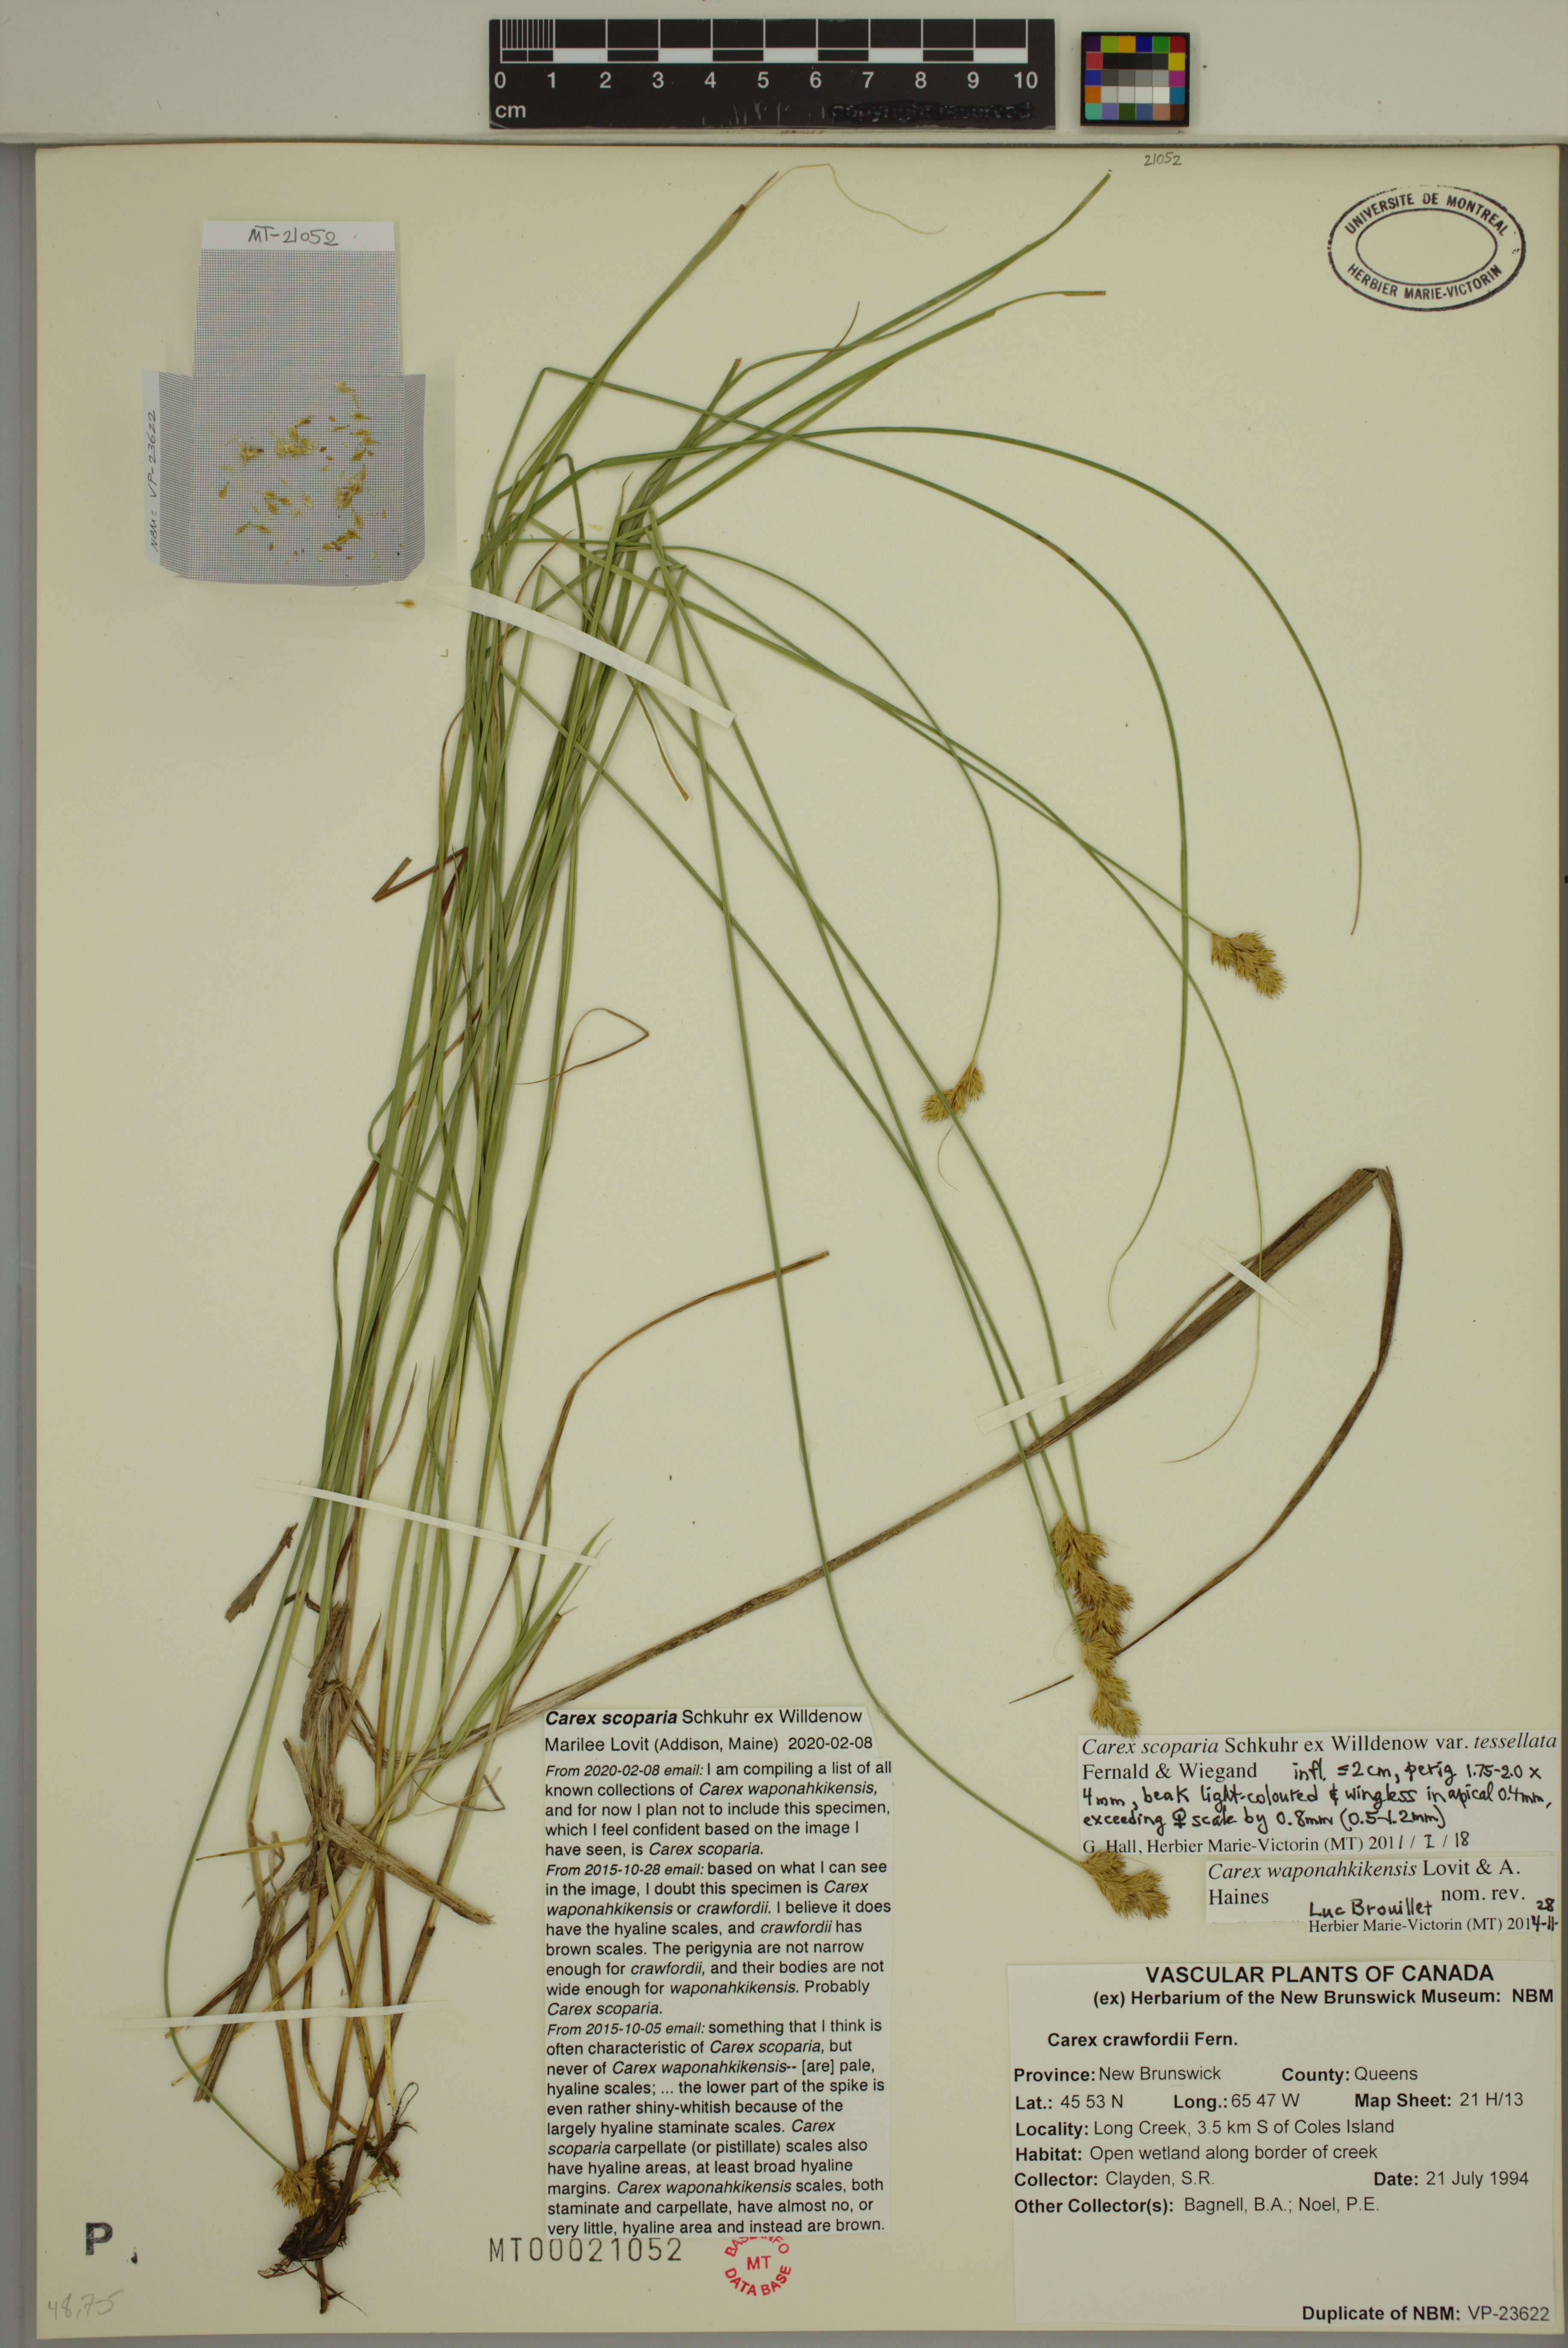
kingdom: Plantae
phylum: Tracheophyta
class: Liliopsida
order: Poales
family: Cyperaceae
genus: Carex
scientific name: Carex scoparia
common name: Broom sedge
